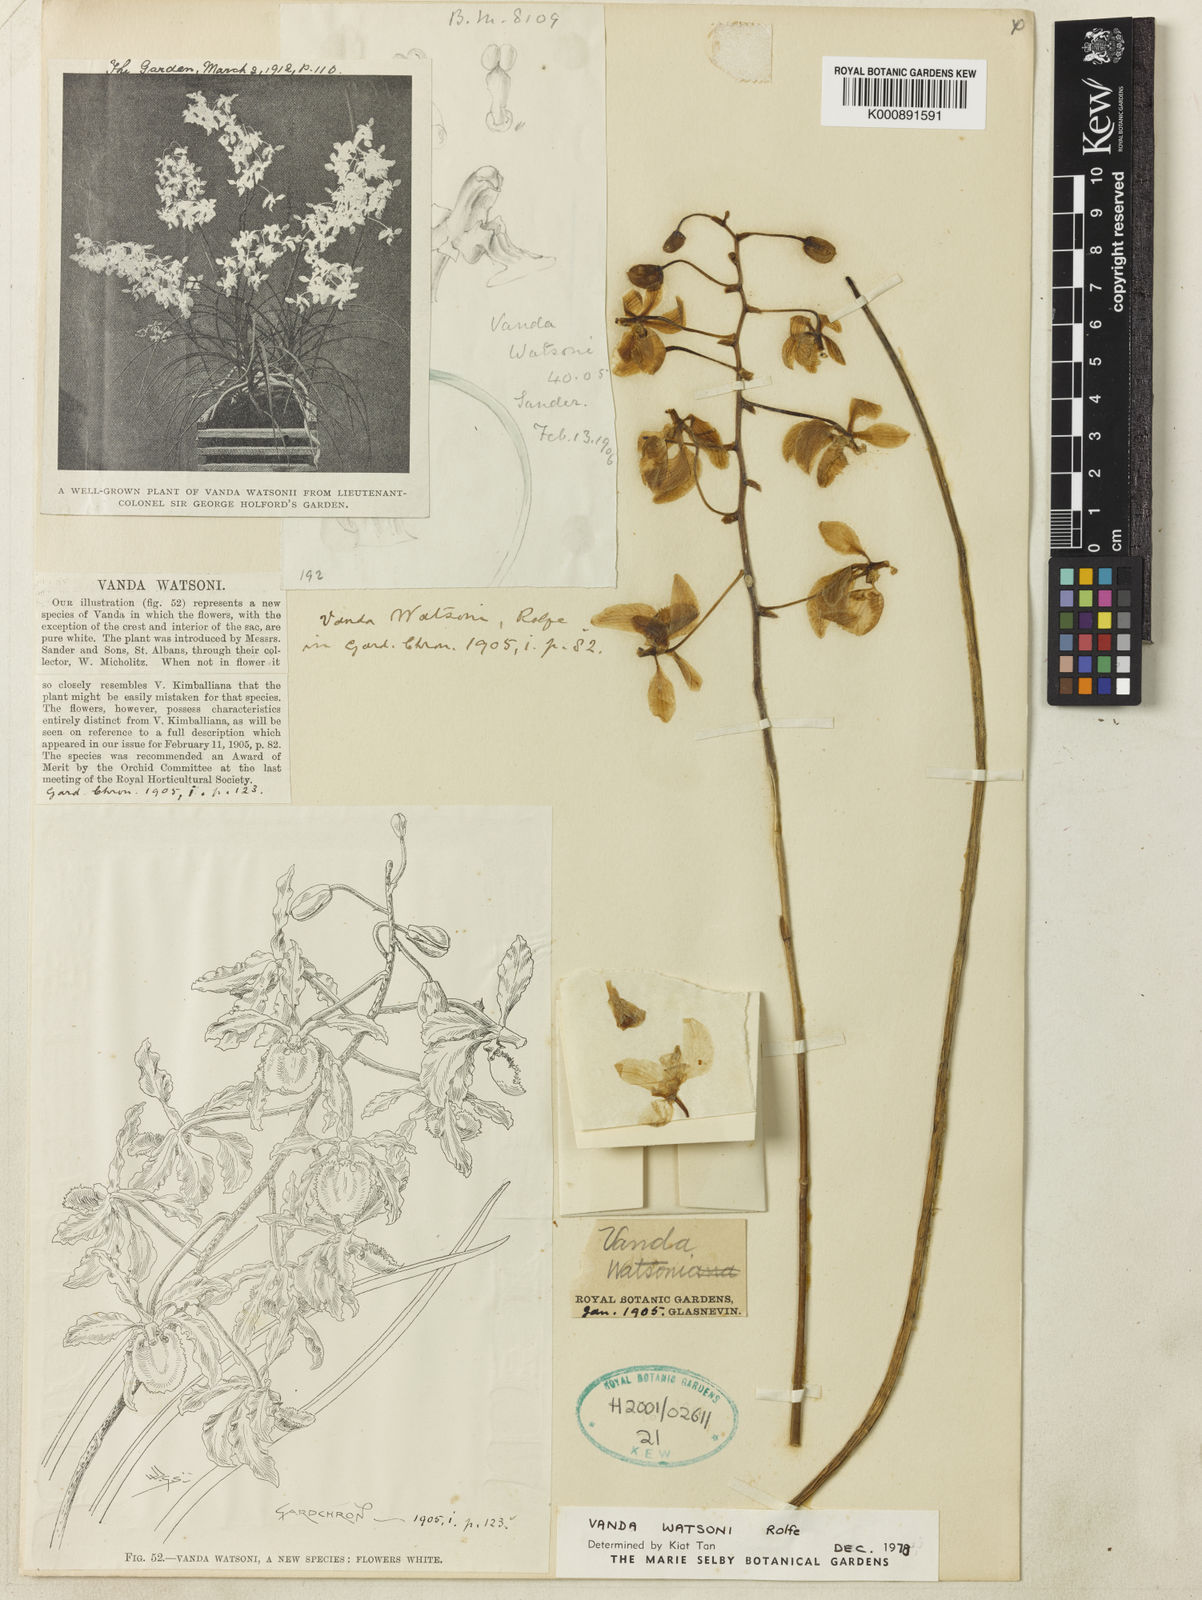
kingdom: Plantae
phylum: Tracheophyta
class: Liliopsida
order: Asparagales
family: Orchidaceae
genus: Holcoglossum
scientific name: Holcoglossum
